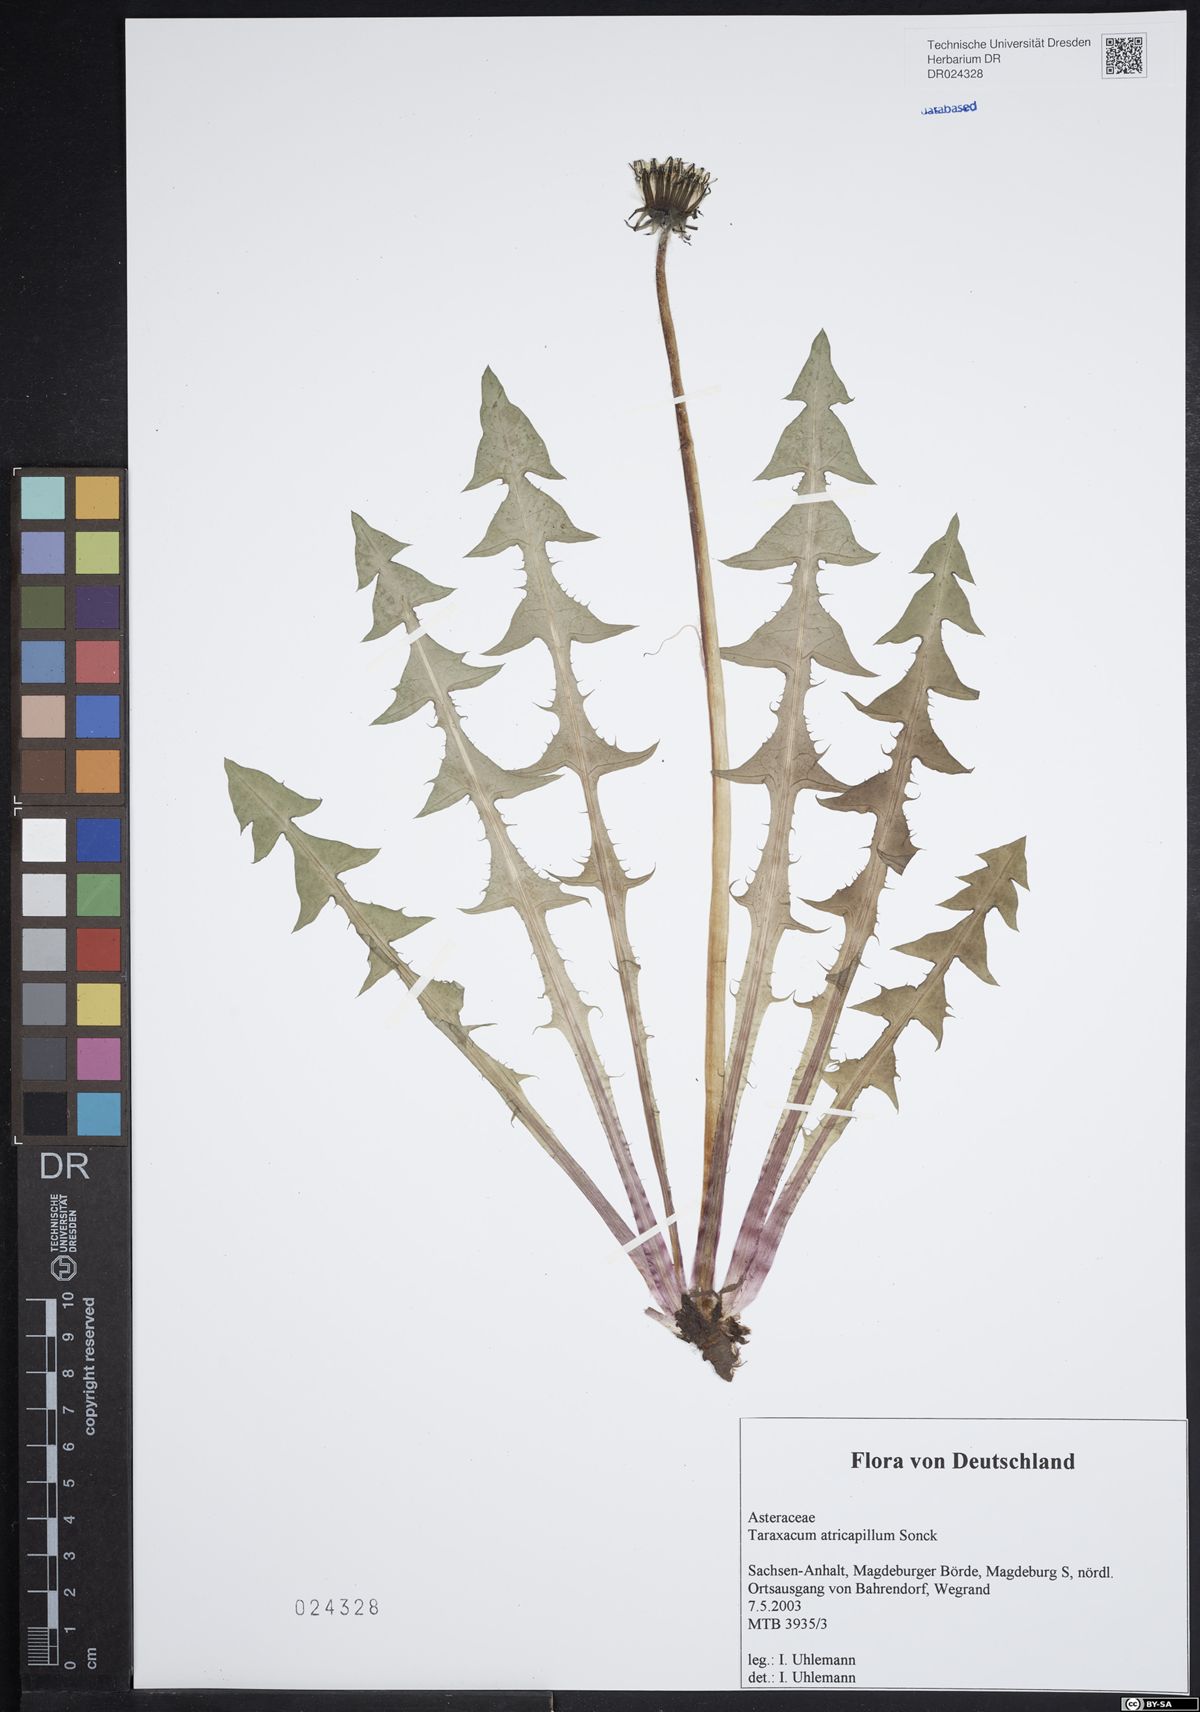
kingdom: Plantae
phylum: Tracheophyta
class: Magnoliopsida
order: Asterales
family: Asteraceae
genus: Taraxacum
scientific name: Taraxacum atricapillum
